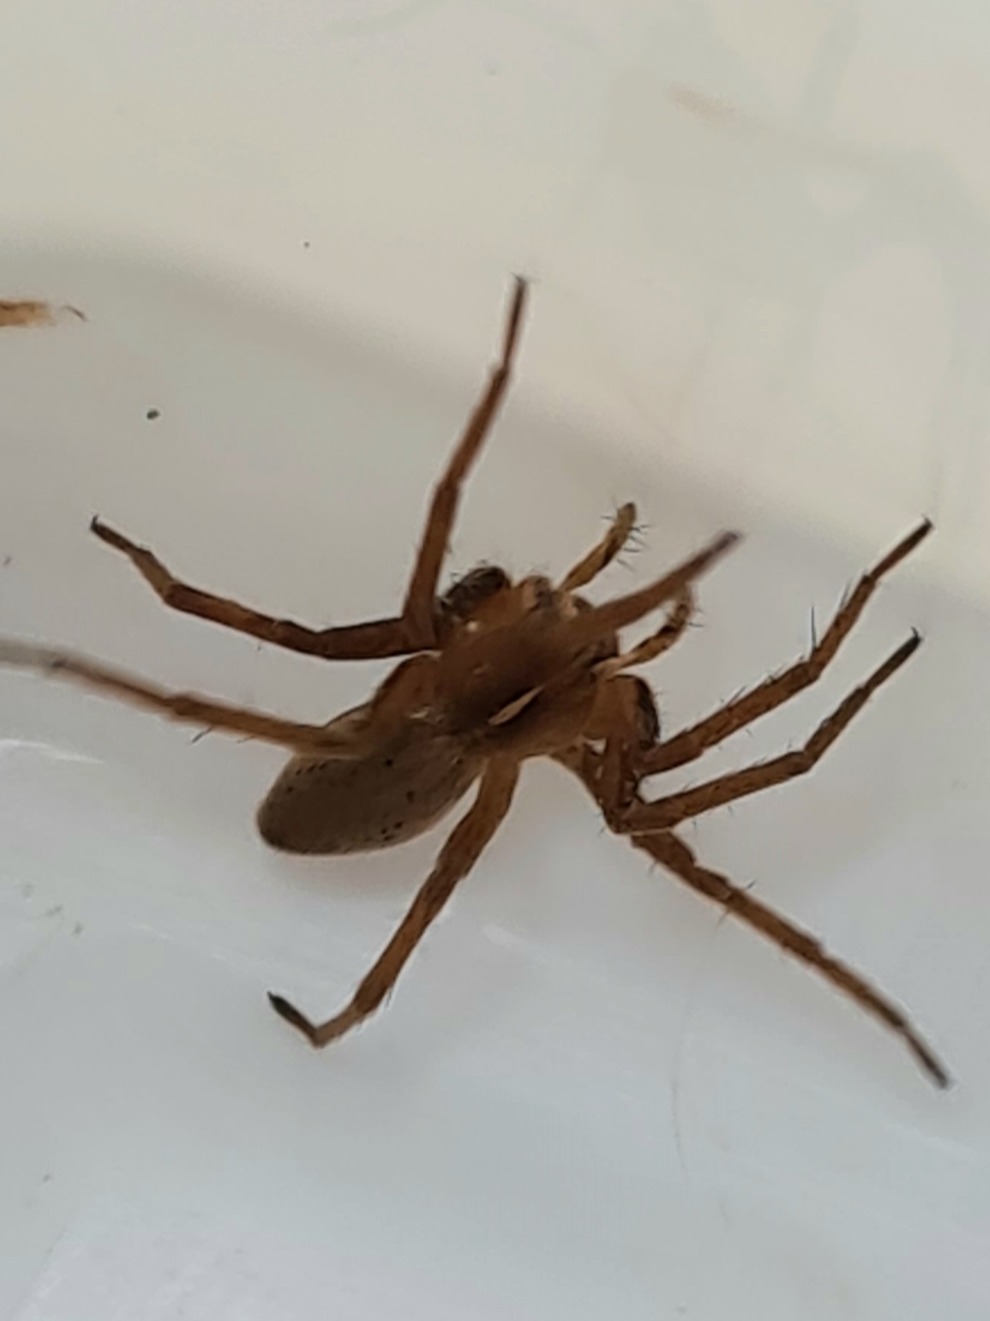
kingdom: Animalia
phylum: Arthropoda
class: Arachnida
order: Araneae
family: Pisauridae
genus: Pisaura
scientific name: Pisaura mirabilis
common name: Almindelig rovedderkop
